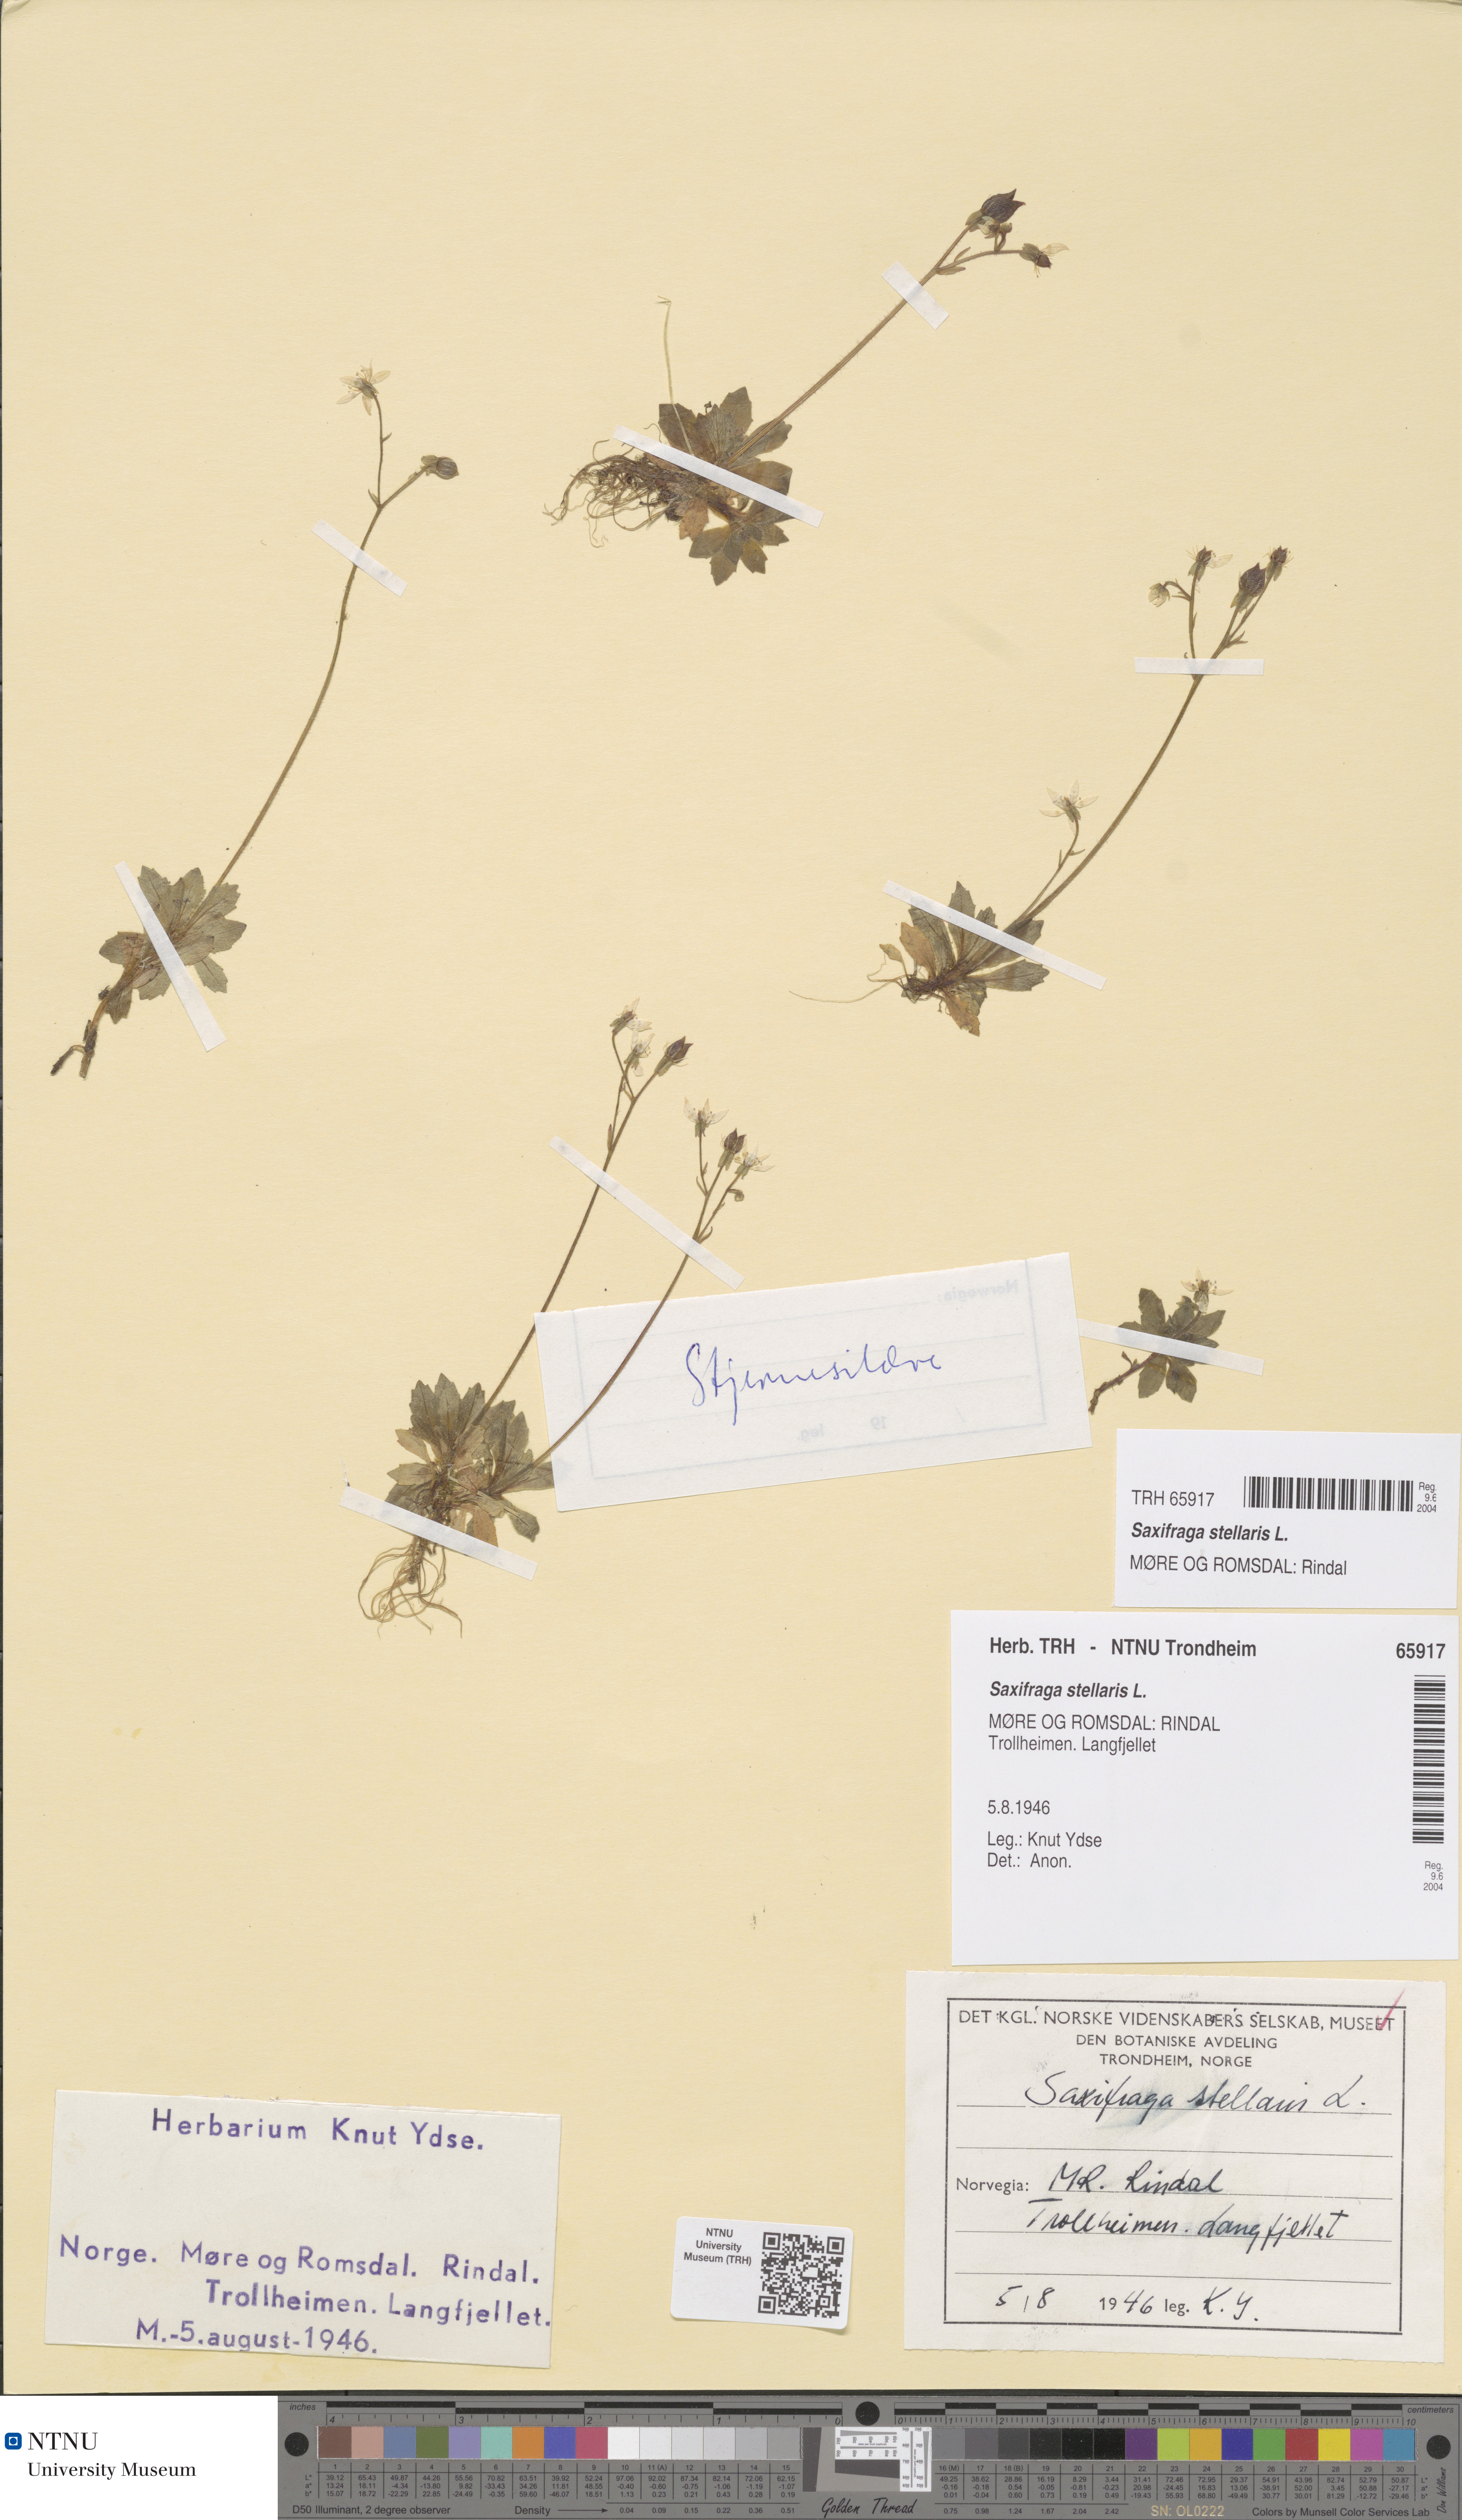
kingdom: Plantae
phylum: Tracheophyta
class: Magnoliopsida
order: Saxifragales
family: Saxifragaceae
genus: Micranthes
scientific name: Micranthes stellaris
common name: Starry saxifrage
